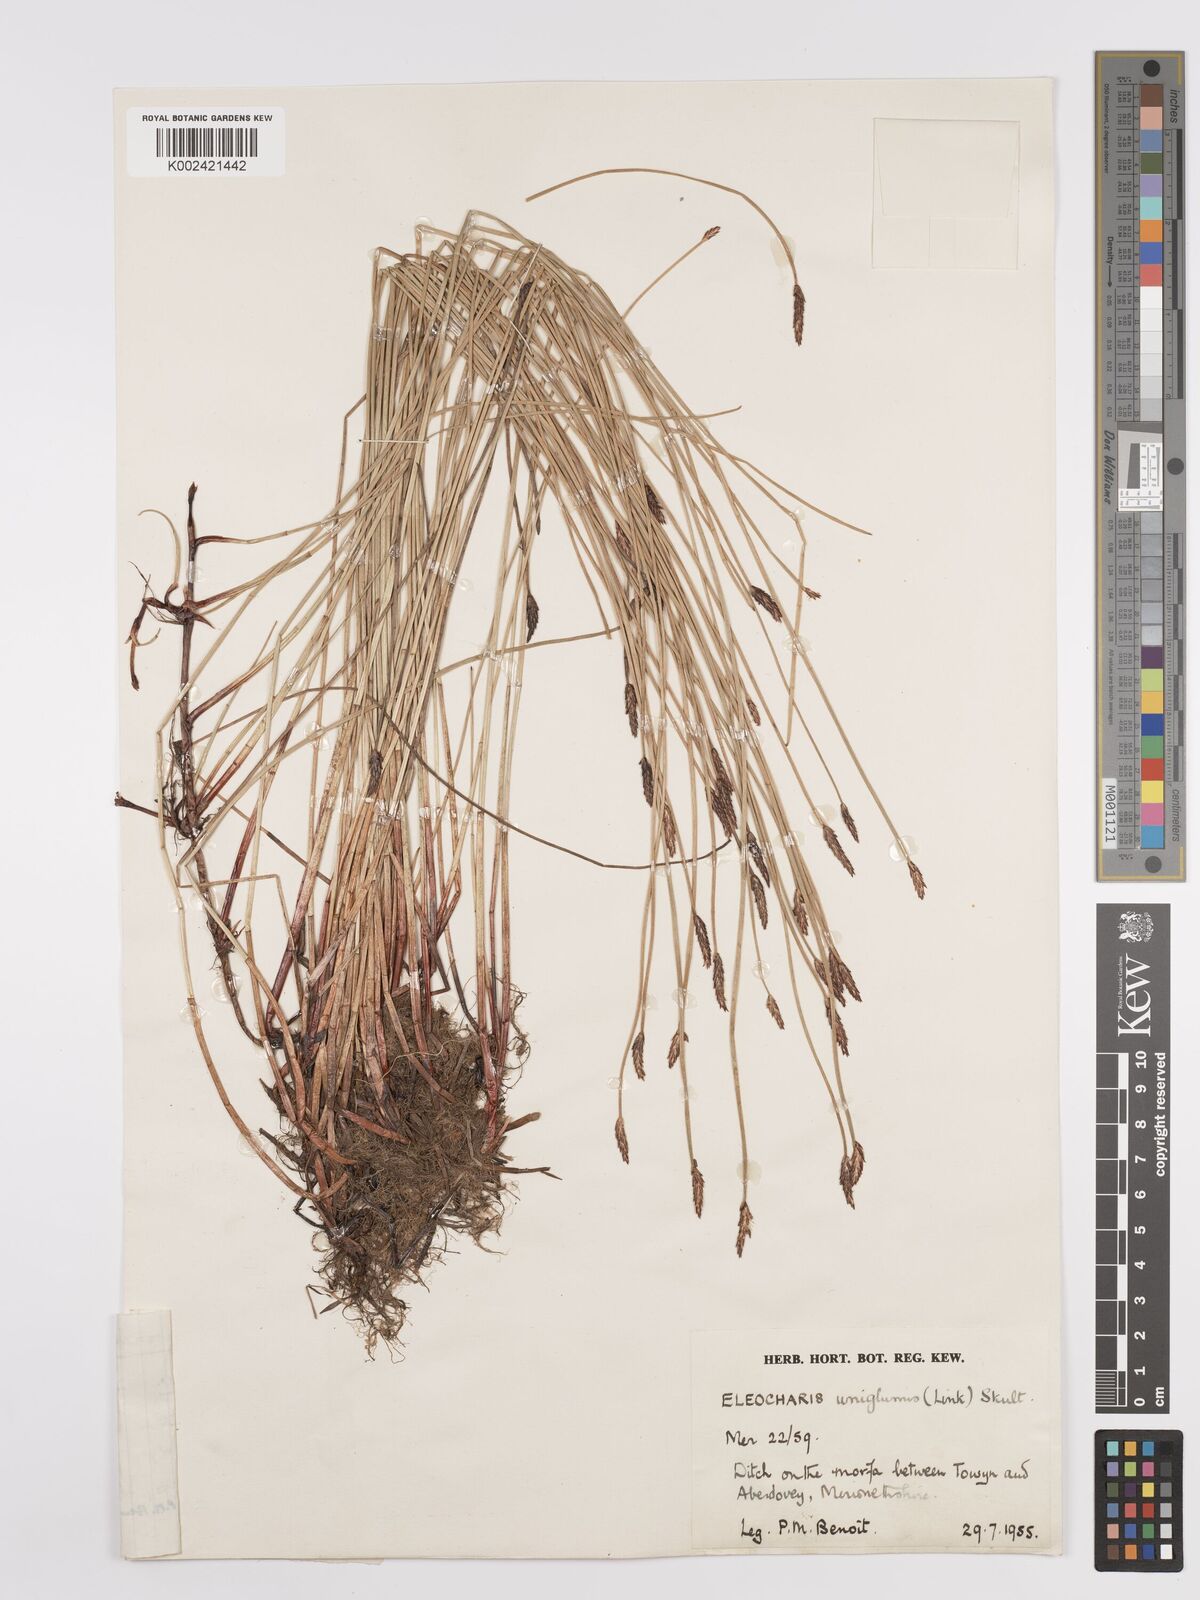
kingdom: Plantae
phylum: Tracheophyta
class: Liliopsida
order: Poales
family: Cyperaceae
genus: Eleocharis
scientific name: Eleocharis uniglumis
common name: Slender spike-rush
